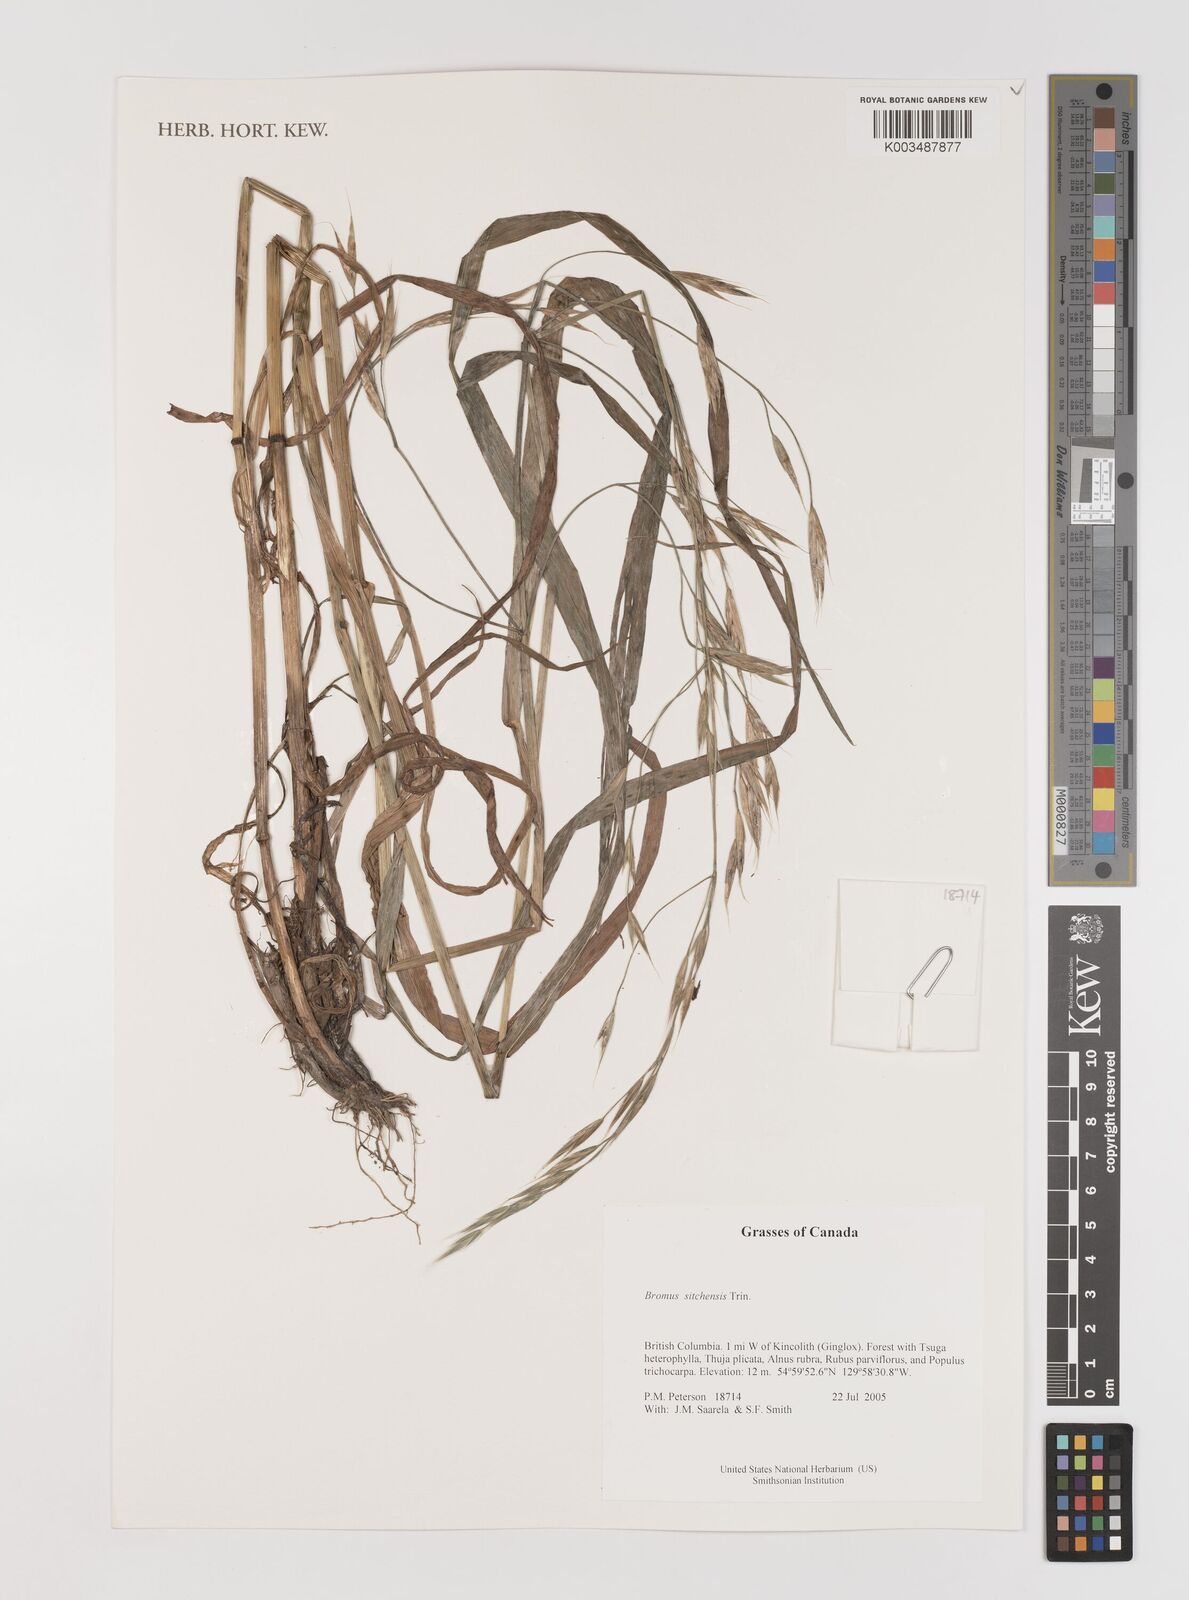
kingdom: Plantae
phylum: Tracheophyta
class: Liliopsida
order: Poales
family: Poaceae
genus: Bromus
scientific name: Bromus sitchensis
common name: Sitka brome
